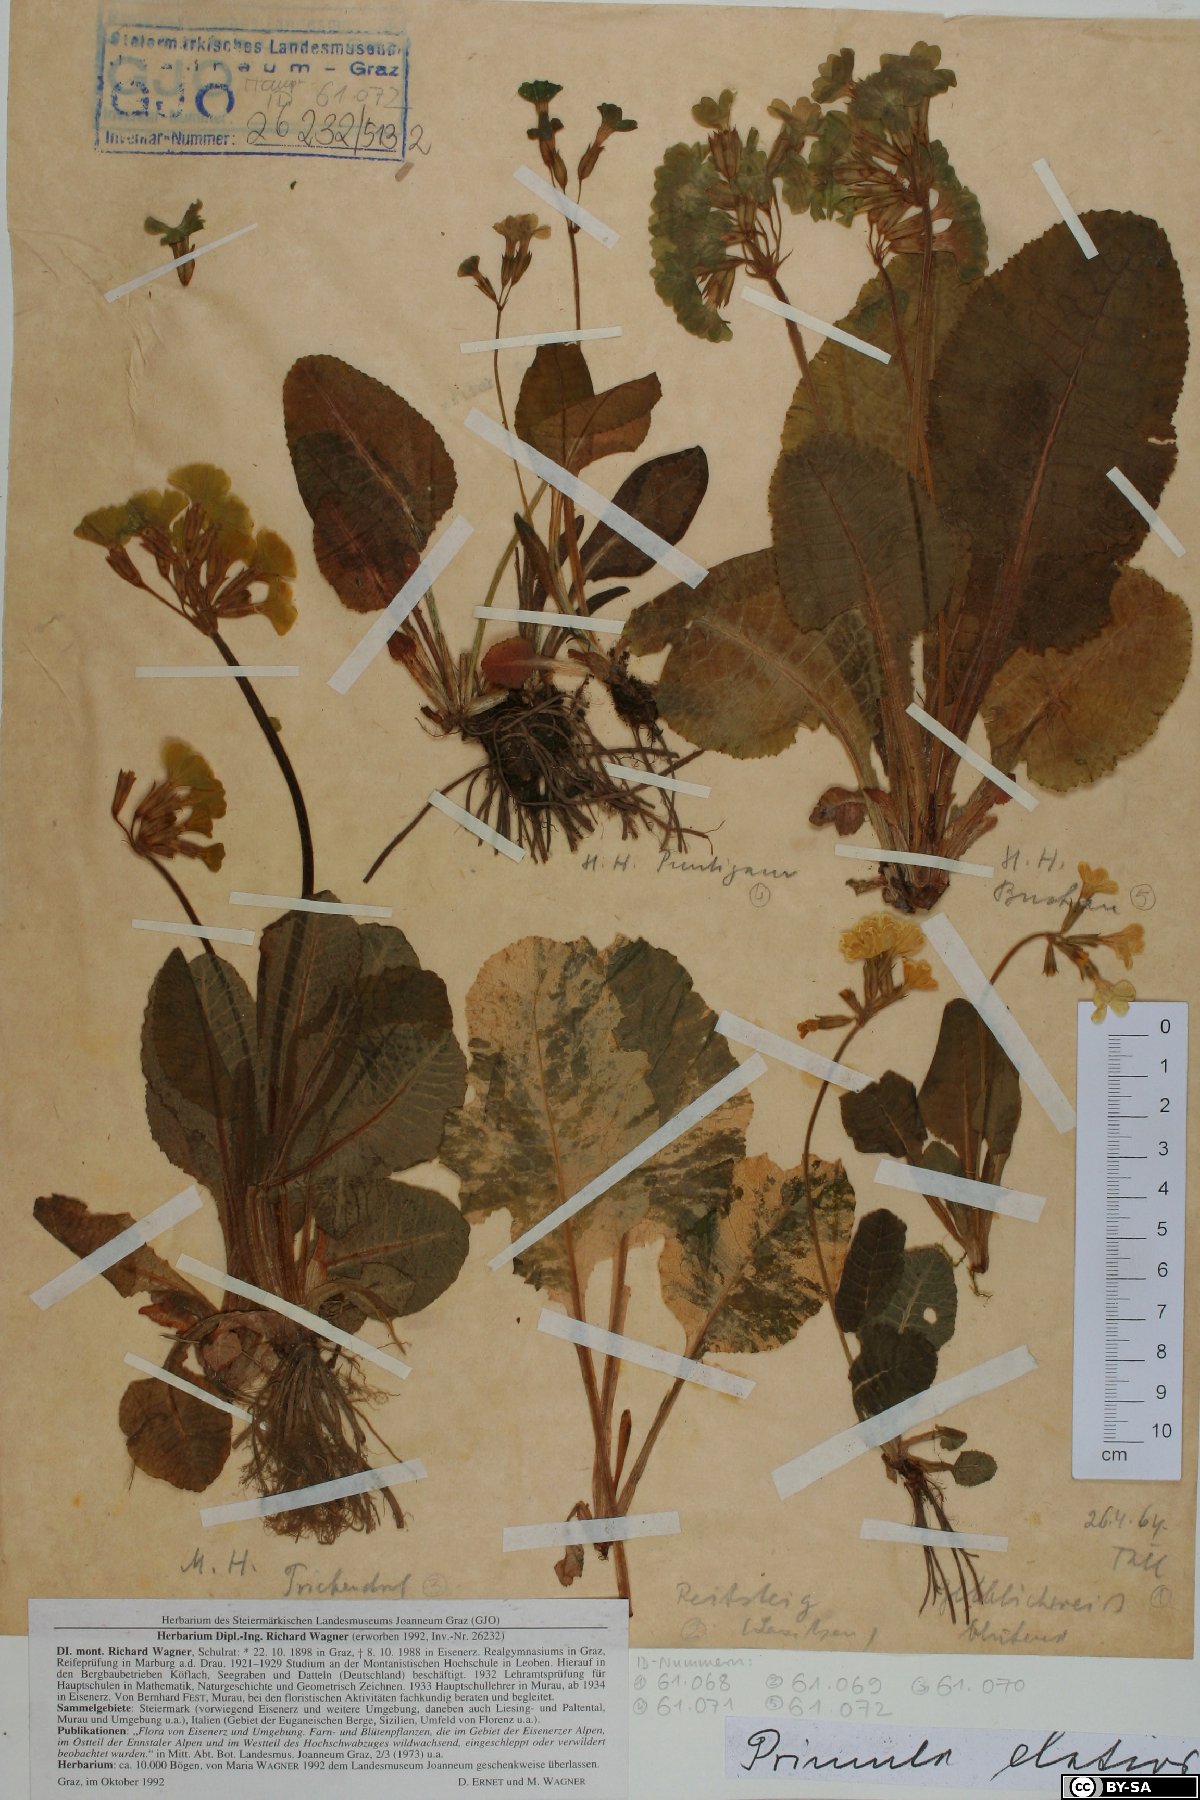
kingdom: Plantae
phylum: Tracheophyta
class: Magnoliopsida
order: Ericales
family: Primulaceae
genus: Primula
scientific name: Primula elatior
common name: Oxlip
